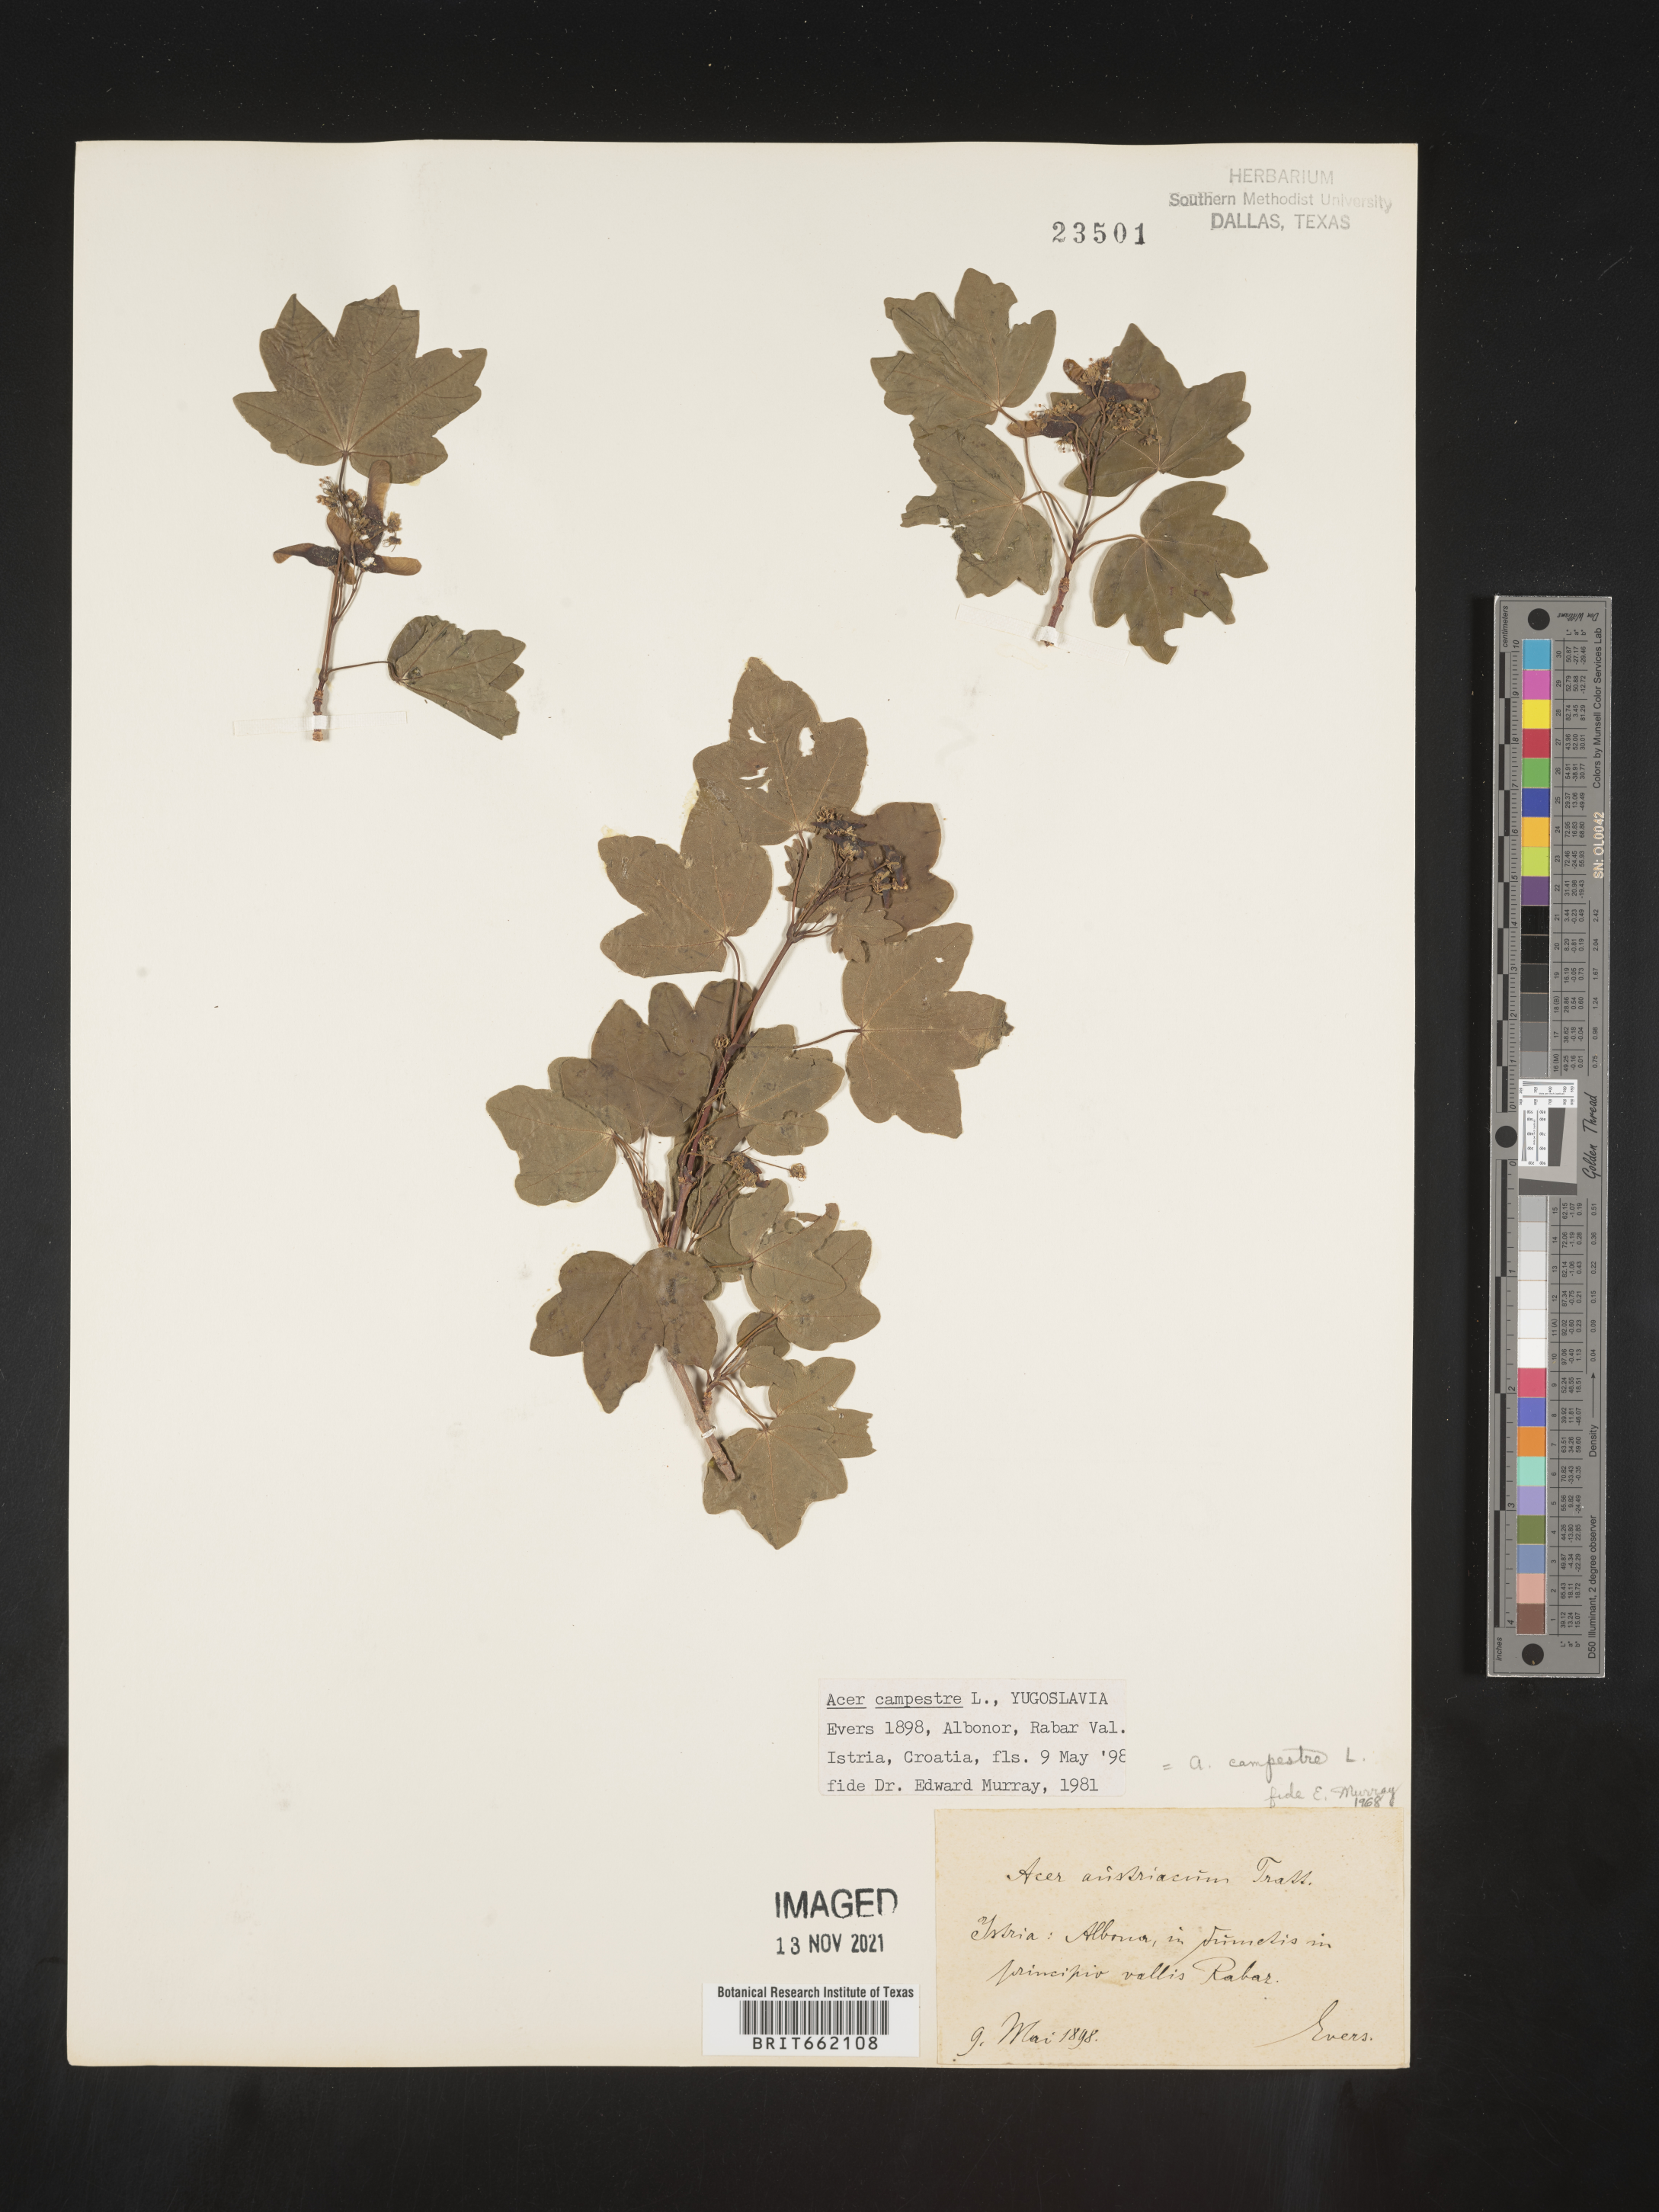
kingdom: Plantae
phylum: Tracheophyta
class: Magnoliopsida
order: Sapindales
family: Sapindaceae
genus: Acer
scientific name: Acer
